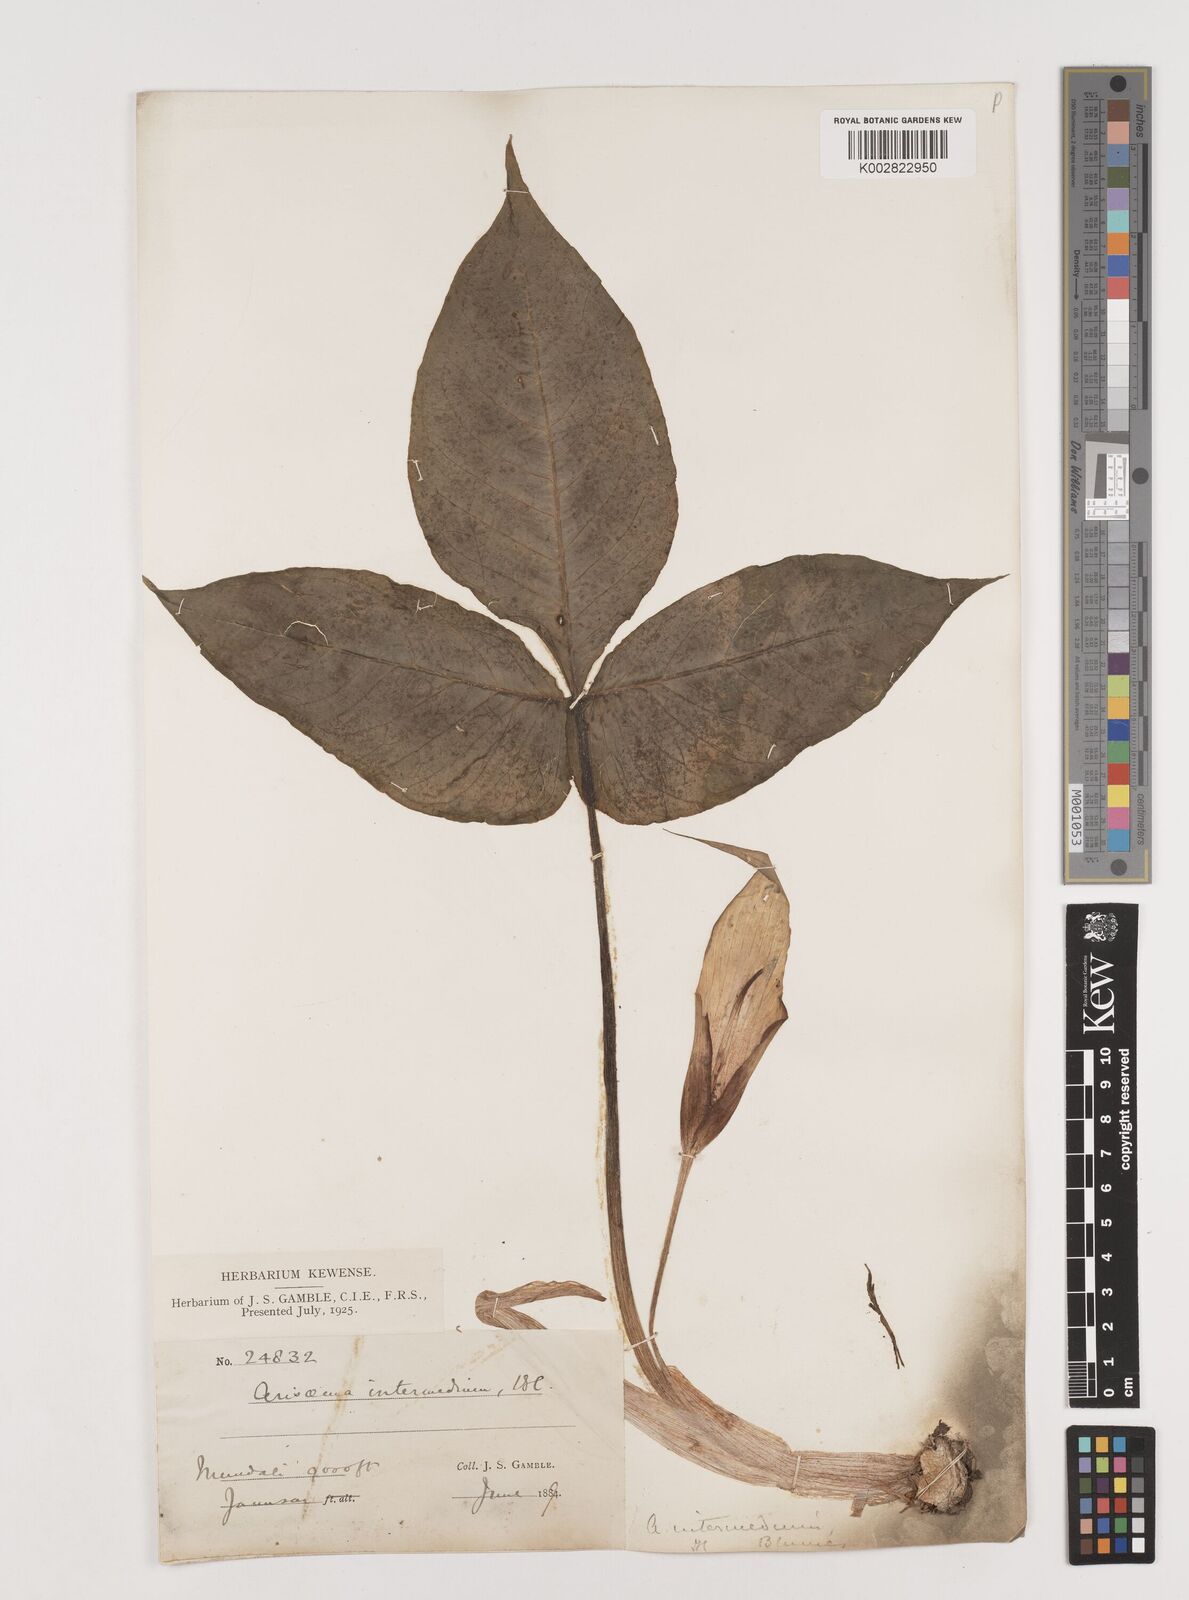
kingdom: Plantae
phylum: Tracheophyta
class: Liliopsida
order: Alismatales
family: Araceae
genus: Arisaema
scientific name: Arisaema intermedium
